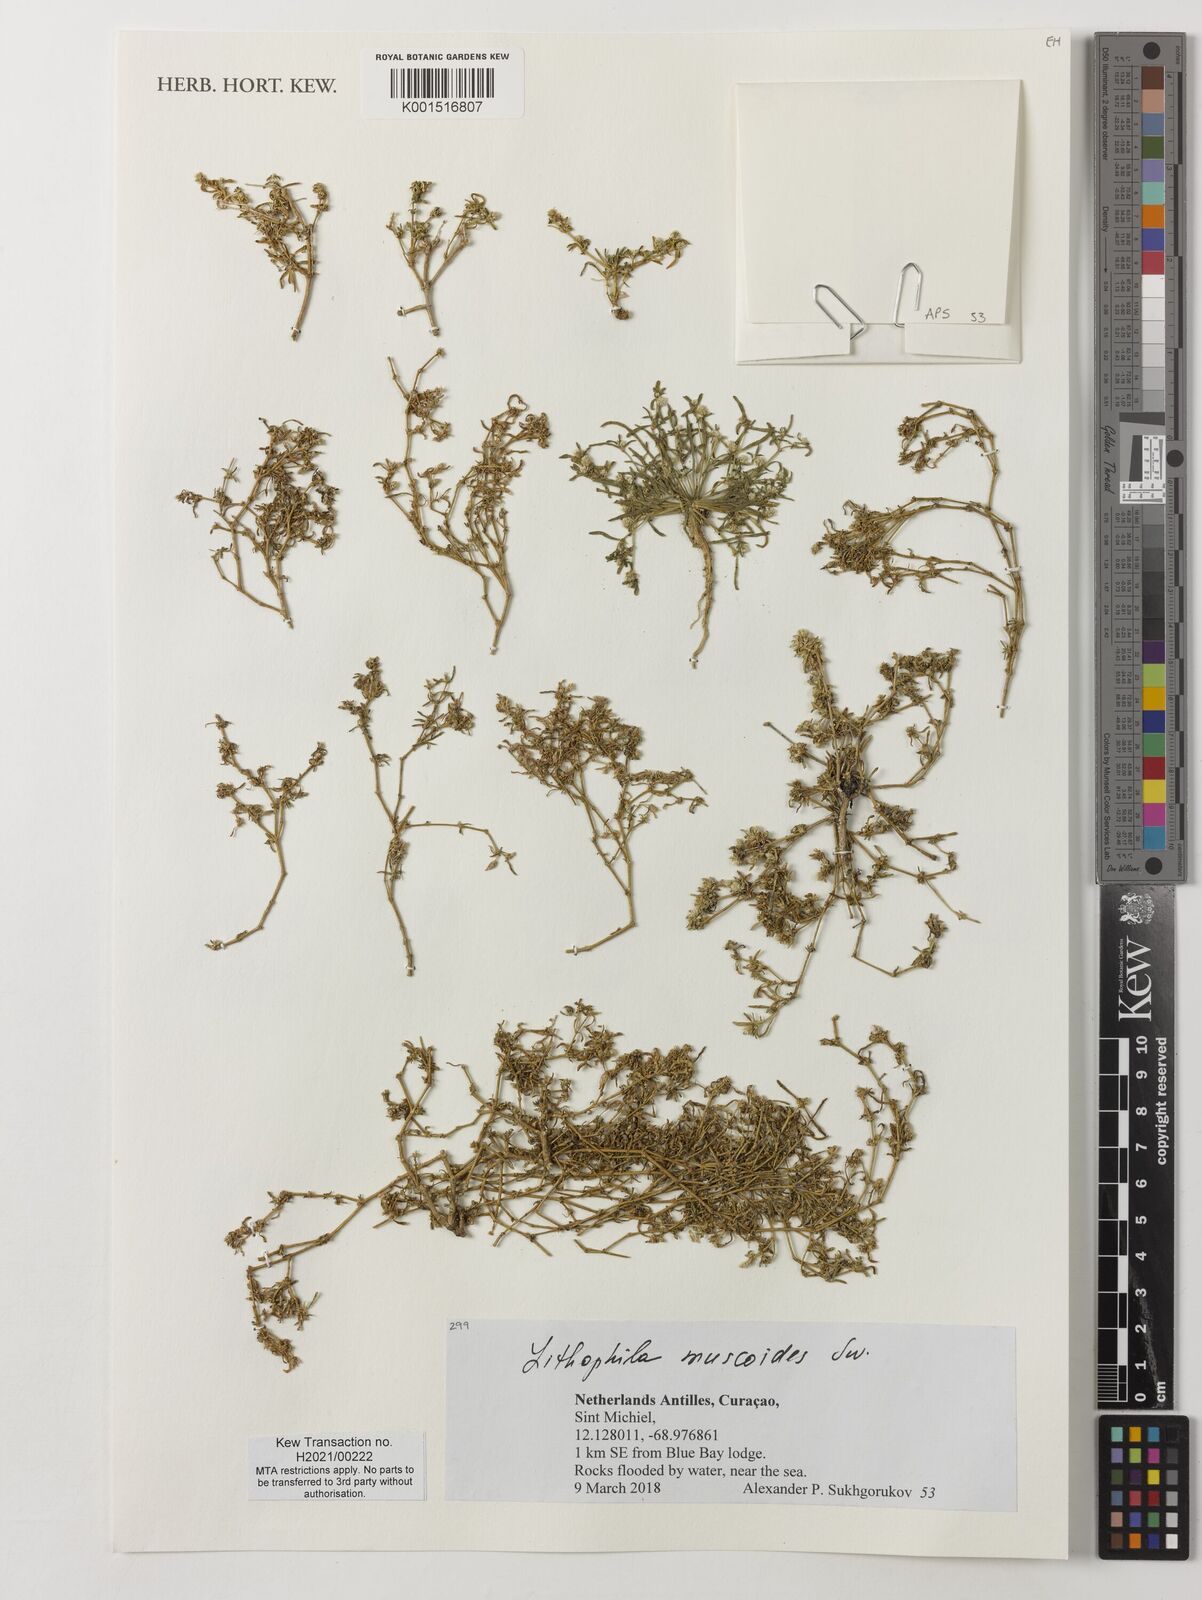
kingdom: Plantae
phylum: Tracheophyta
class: Magnoliopsida
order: Caryophyllales
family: Amaranthaceae
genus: Gomphrena
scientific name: Gomphrena muscoides
